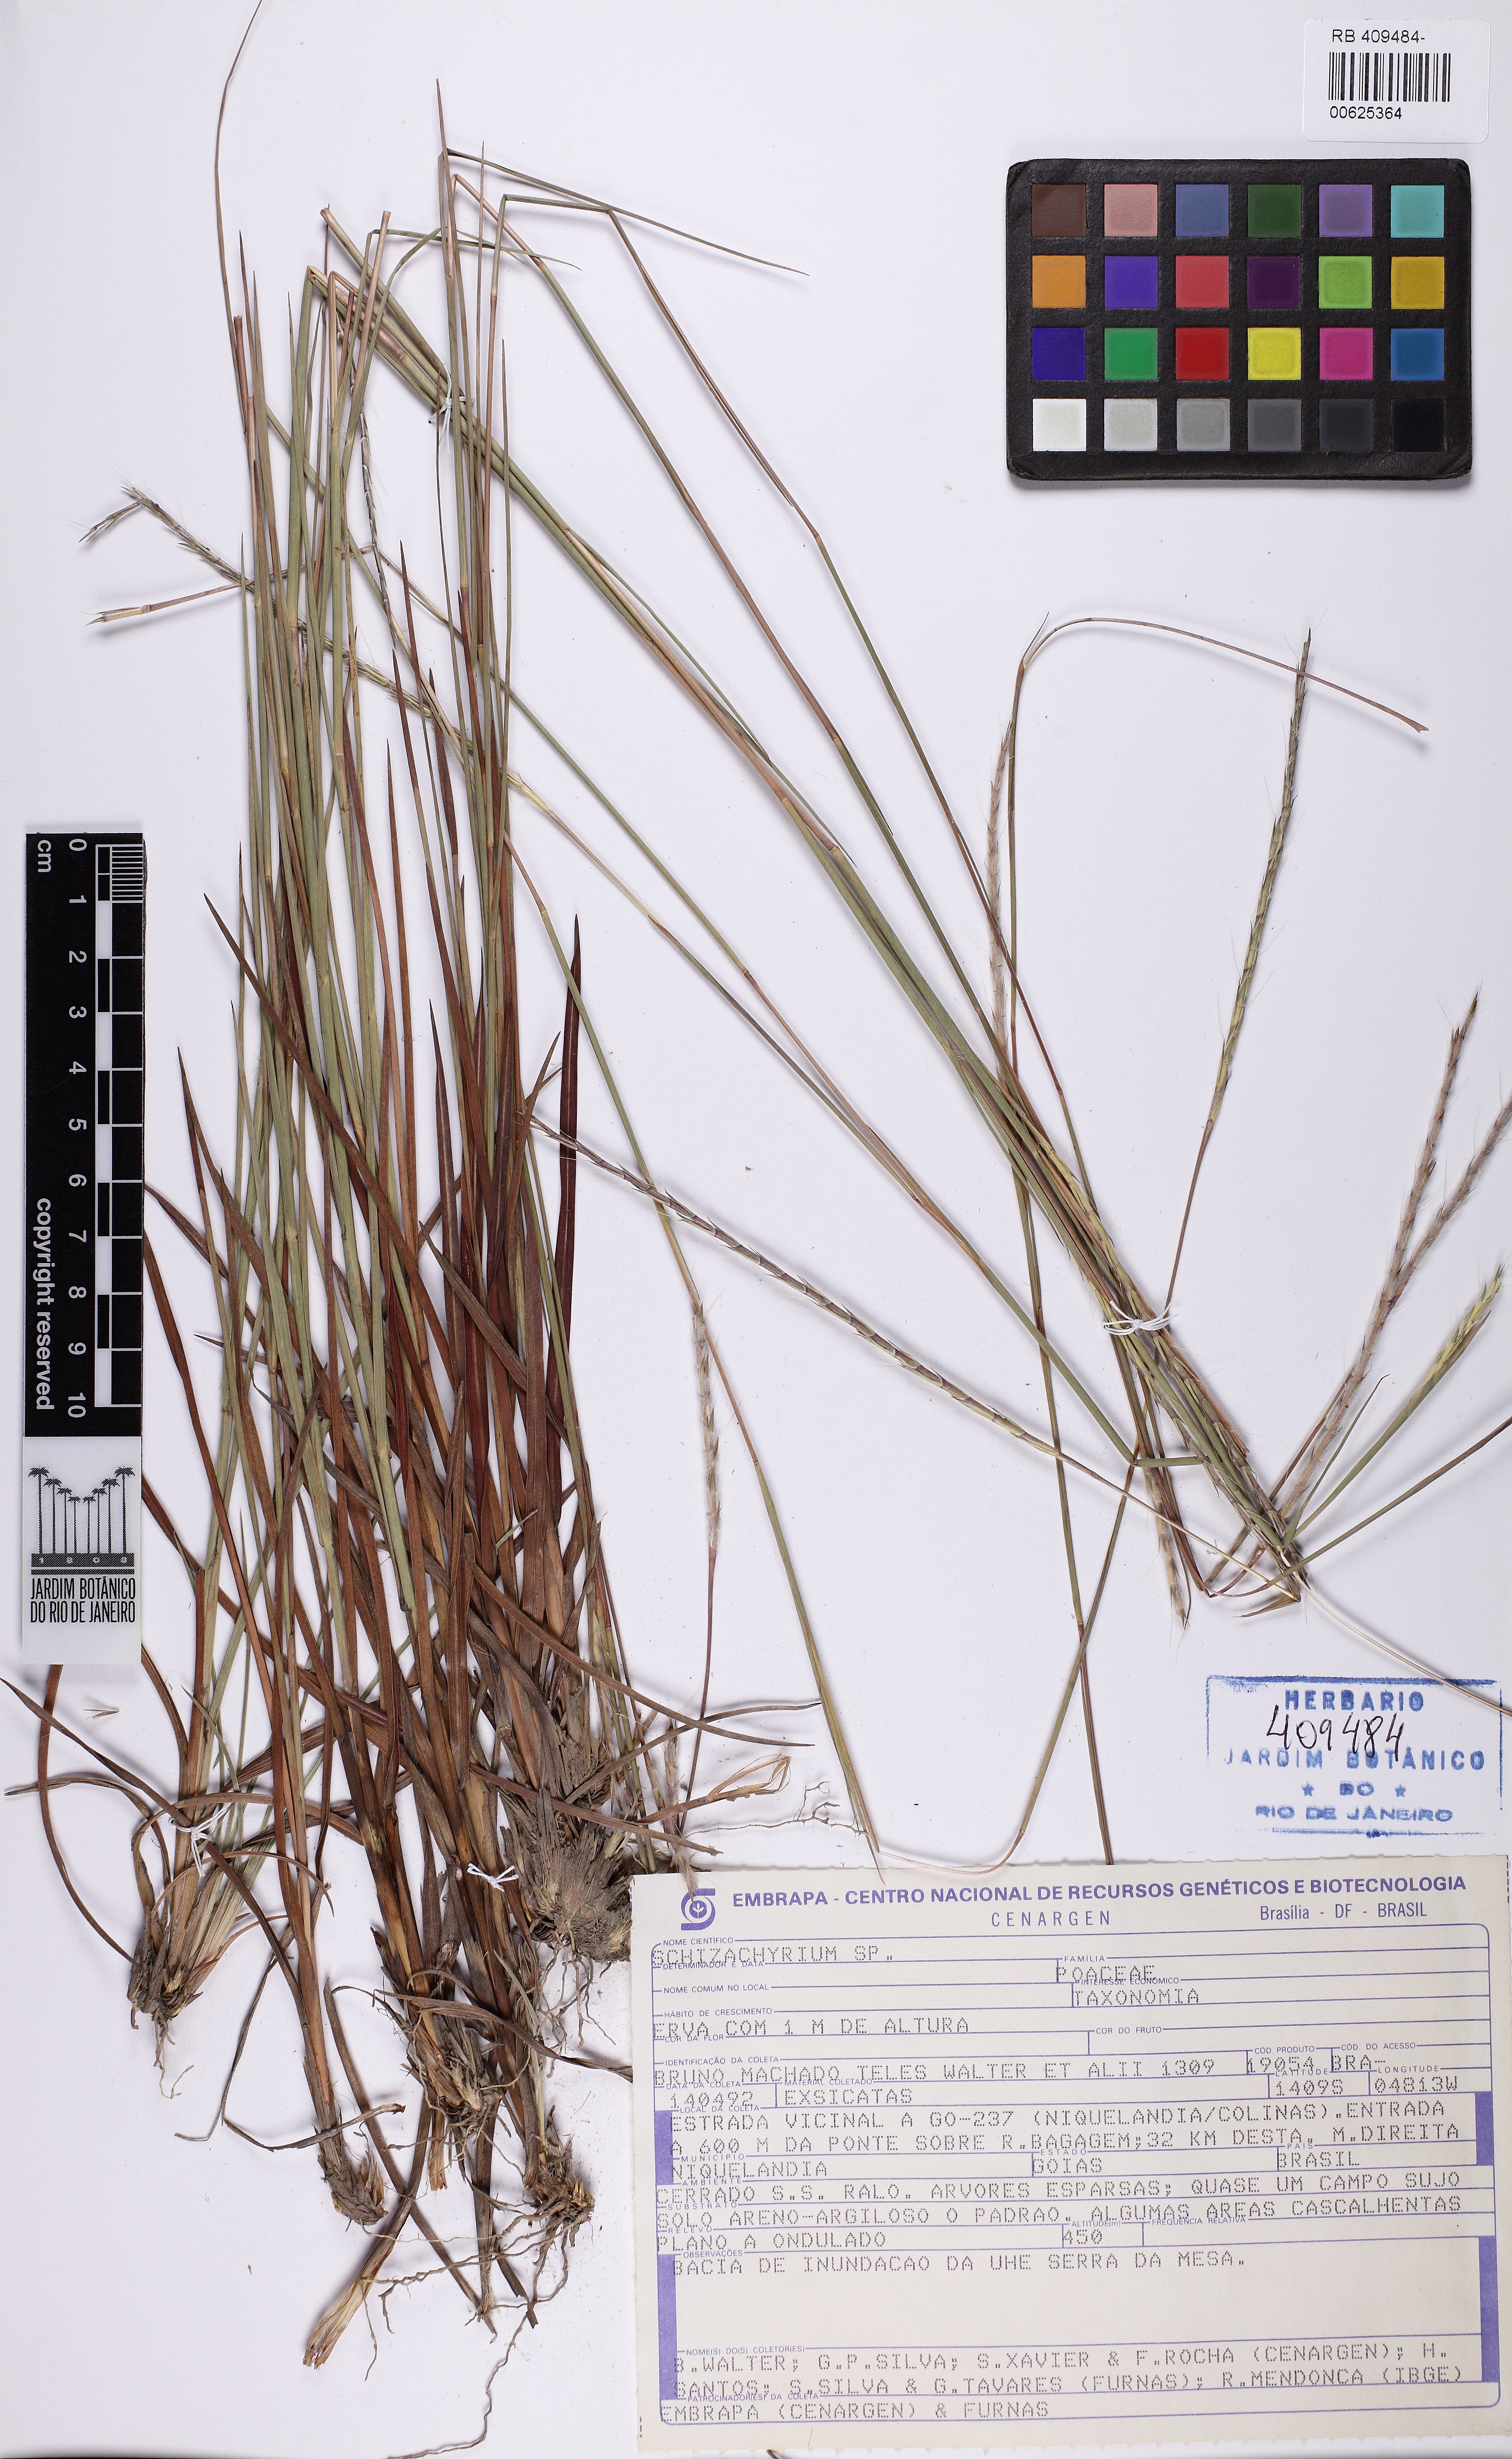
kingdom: Plantae
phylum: Tracheophyta
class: Liliopsida
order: Poales
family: Poaceae
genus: Schizachyrium
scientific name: Schizachyrium
